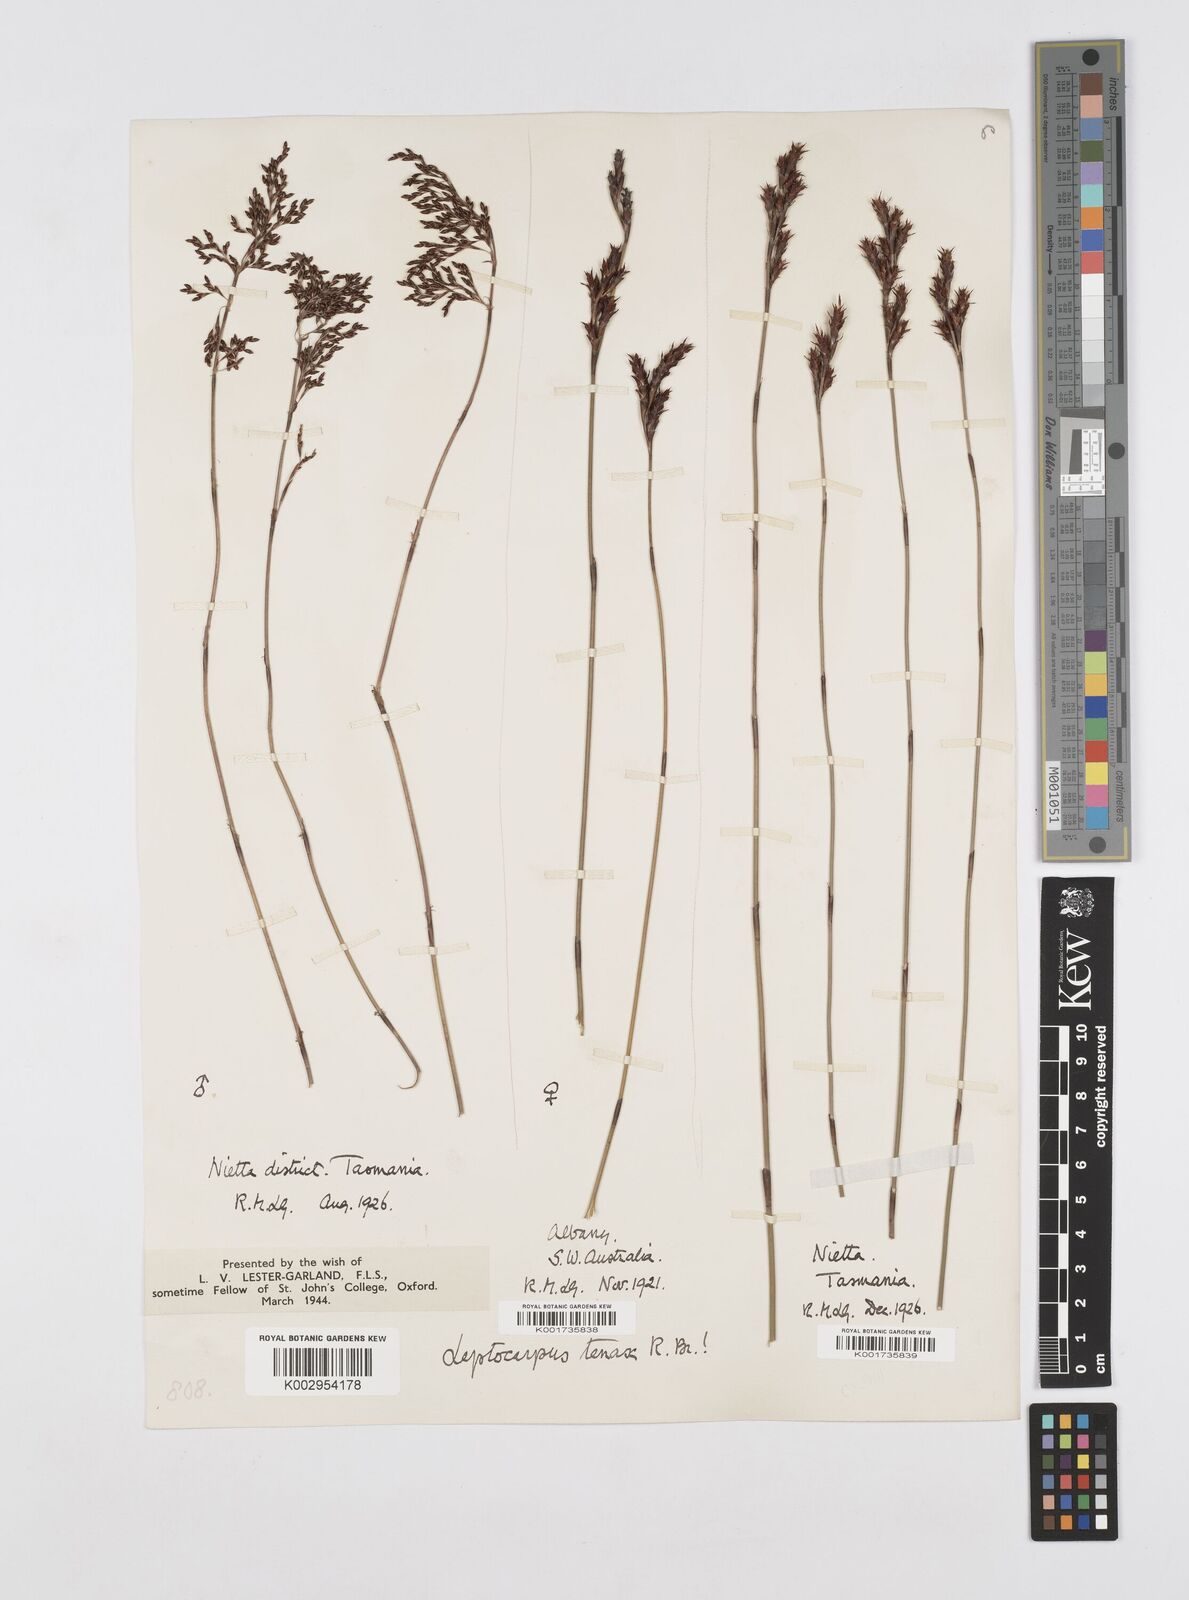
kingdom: Plantae
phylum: Tracheophyta
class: Liliopsida
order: Poales
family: Restionaceae
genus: Leptocarpus
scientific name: Leptocarpus tenax
